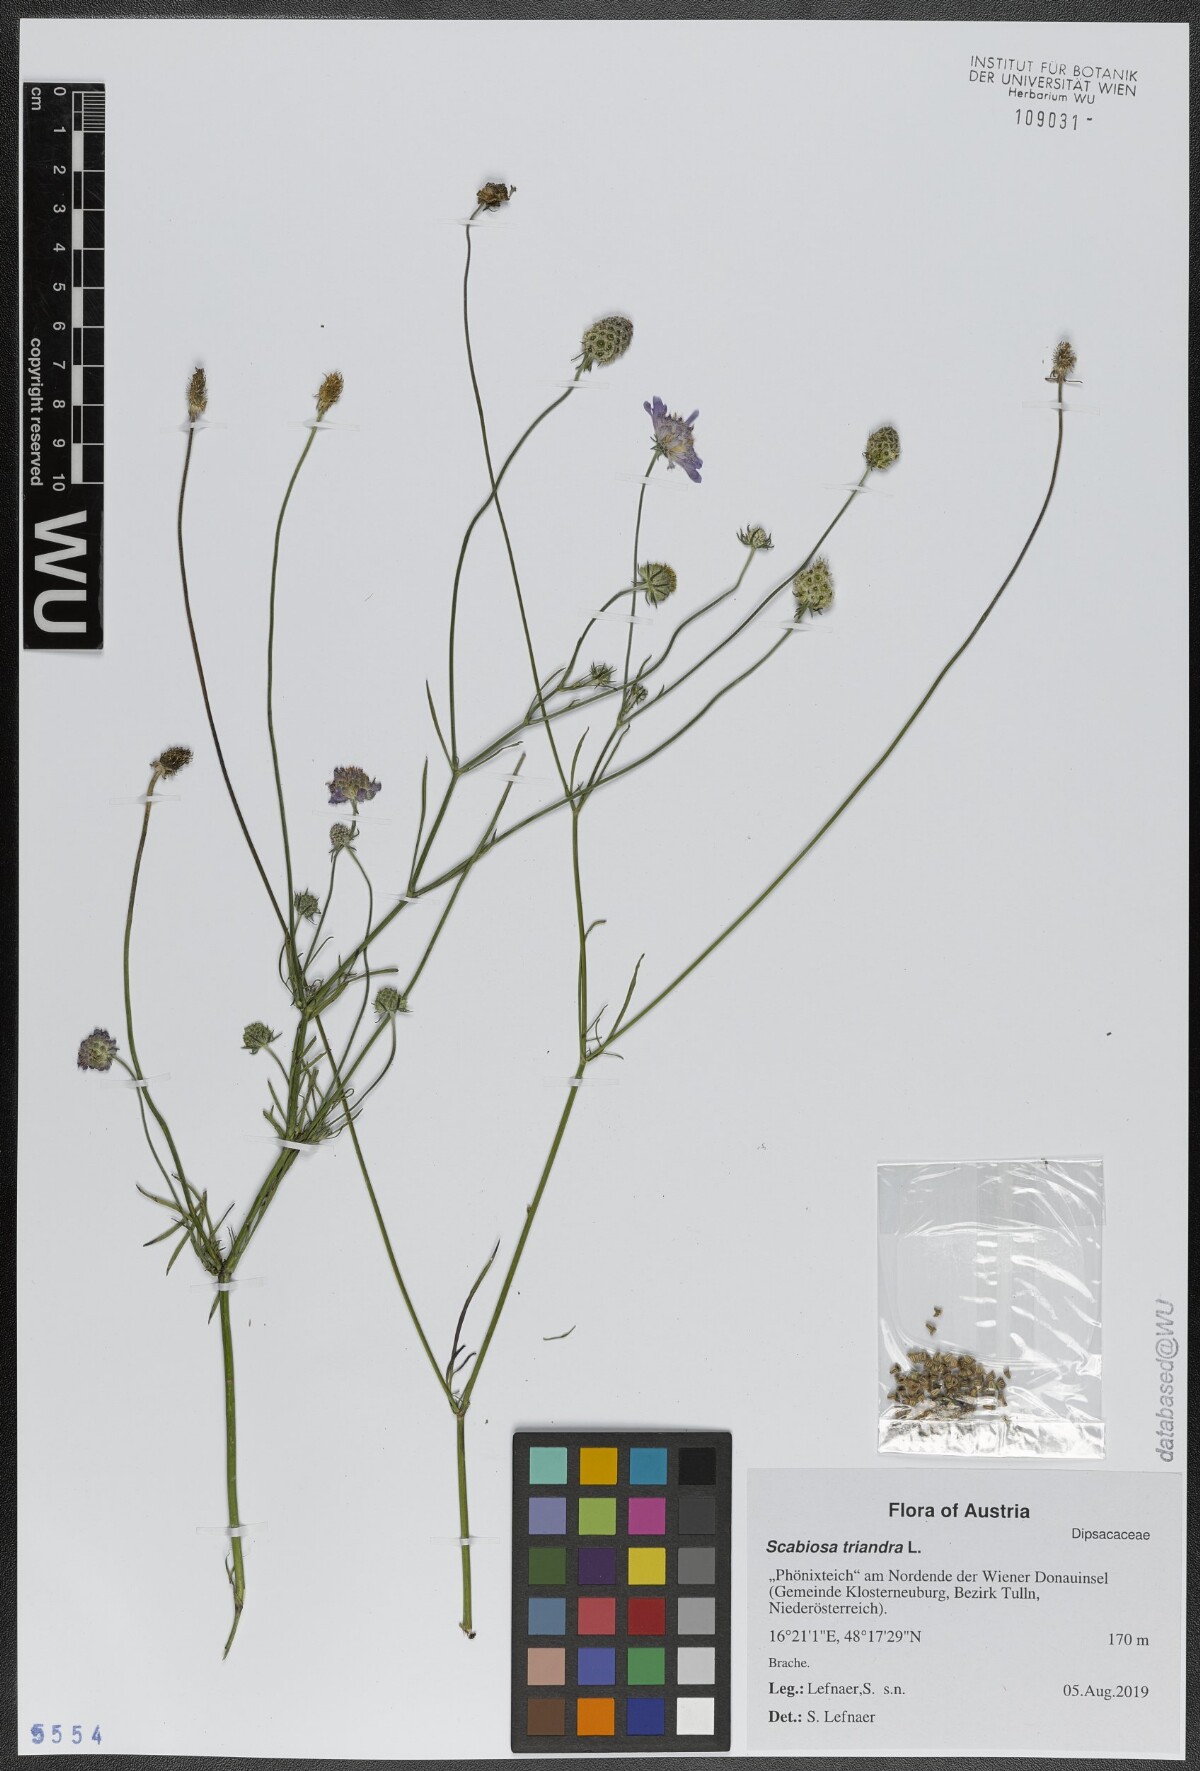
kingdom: Plantae
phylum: Tracheophyta
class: Magnoliopsida
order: Dipsacales
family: Caprifoliaceae
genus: Scabiosa
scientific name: Scabiosa triandra
